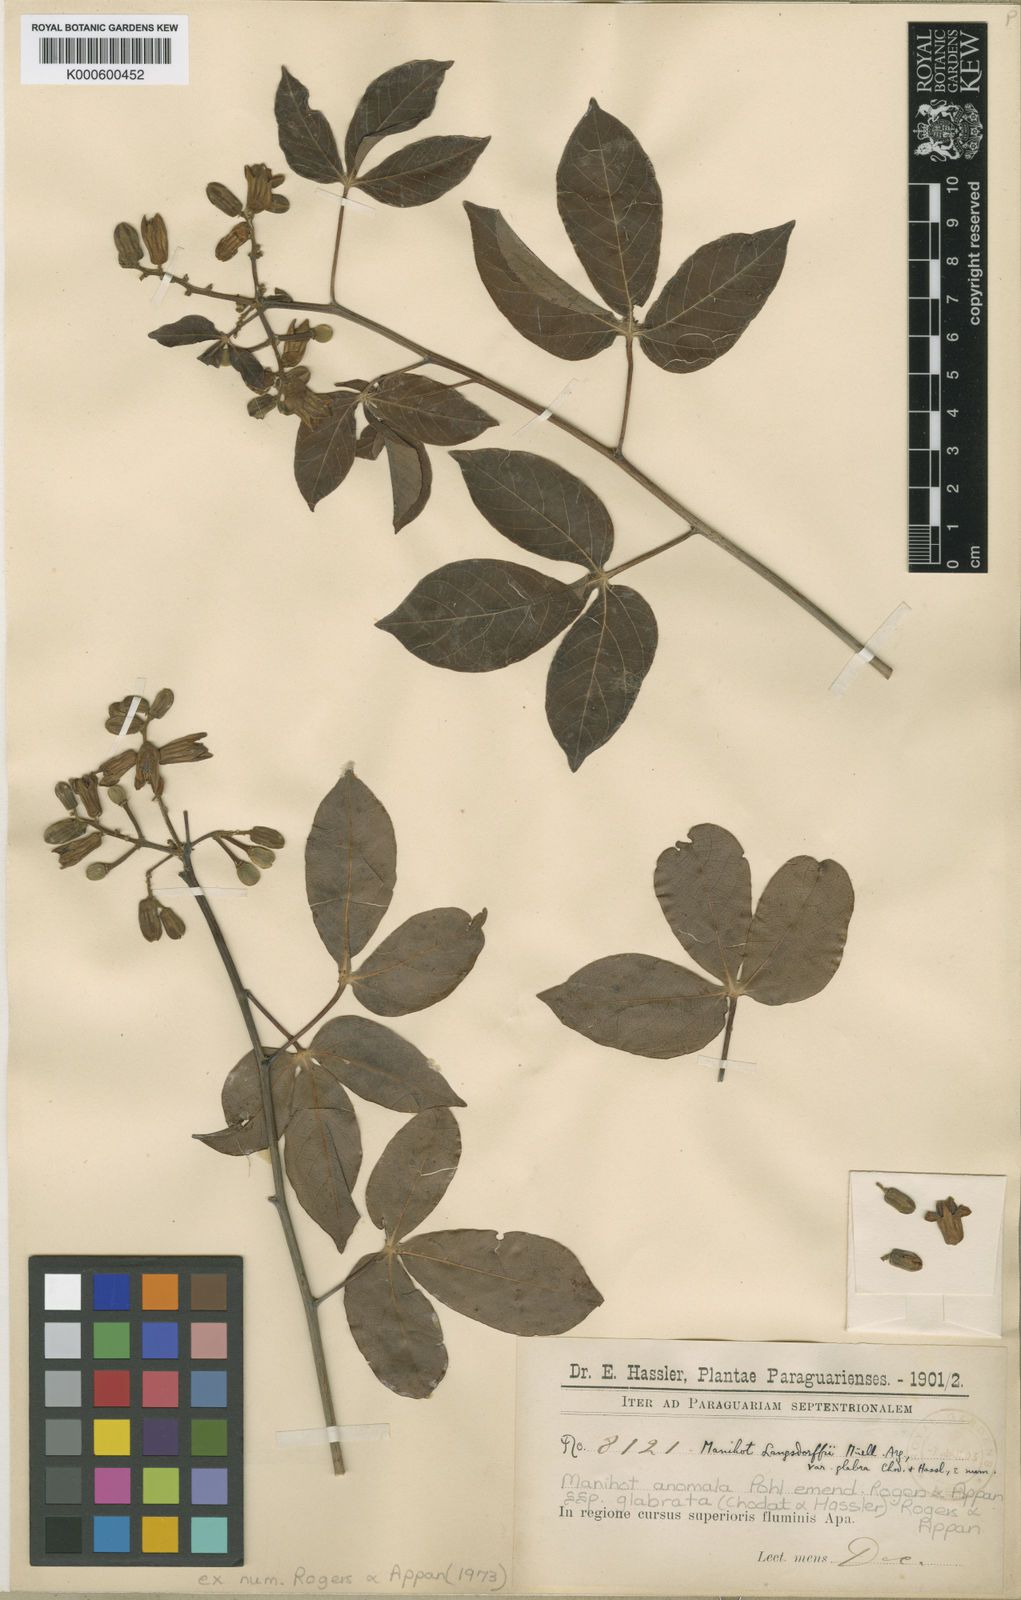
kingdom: Plantae
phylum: Tracheophyta
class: Magnoliopsida
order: Malpighiales
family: Euphorbiaceae
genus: Manihot
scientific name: Manihot anomala
